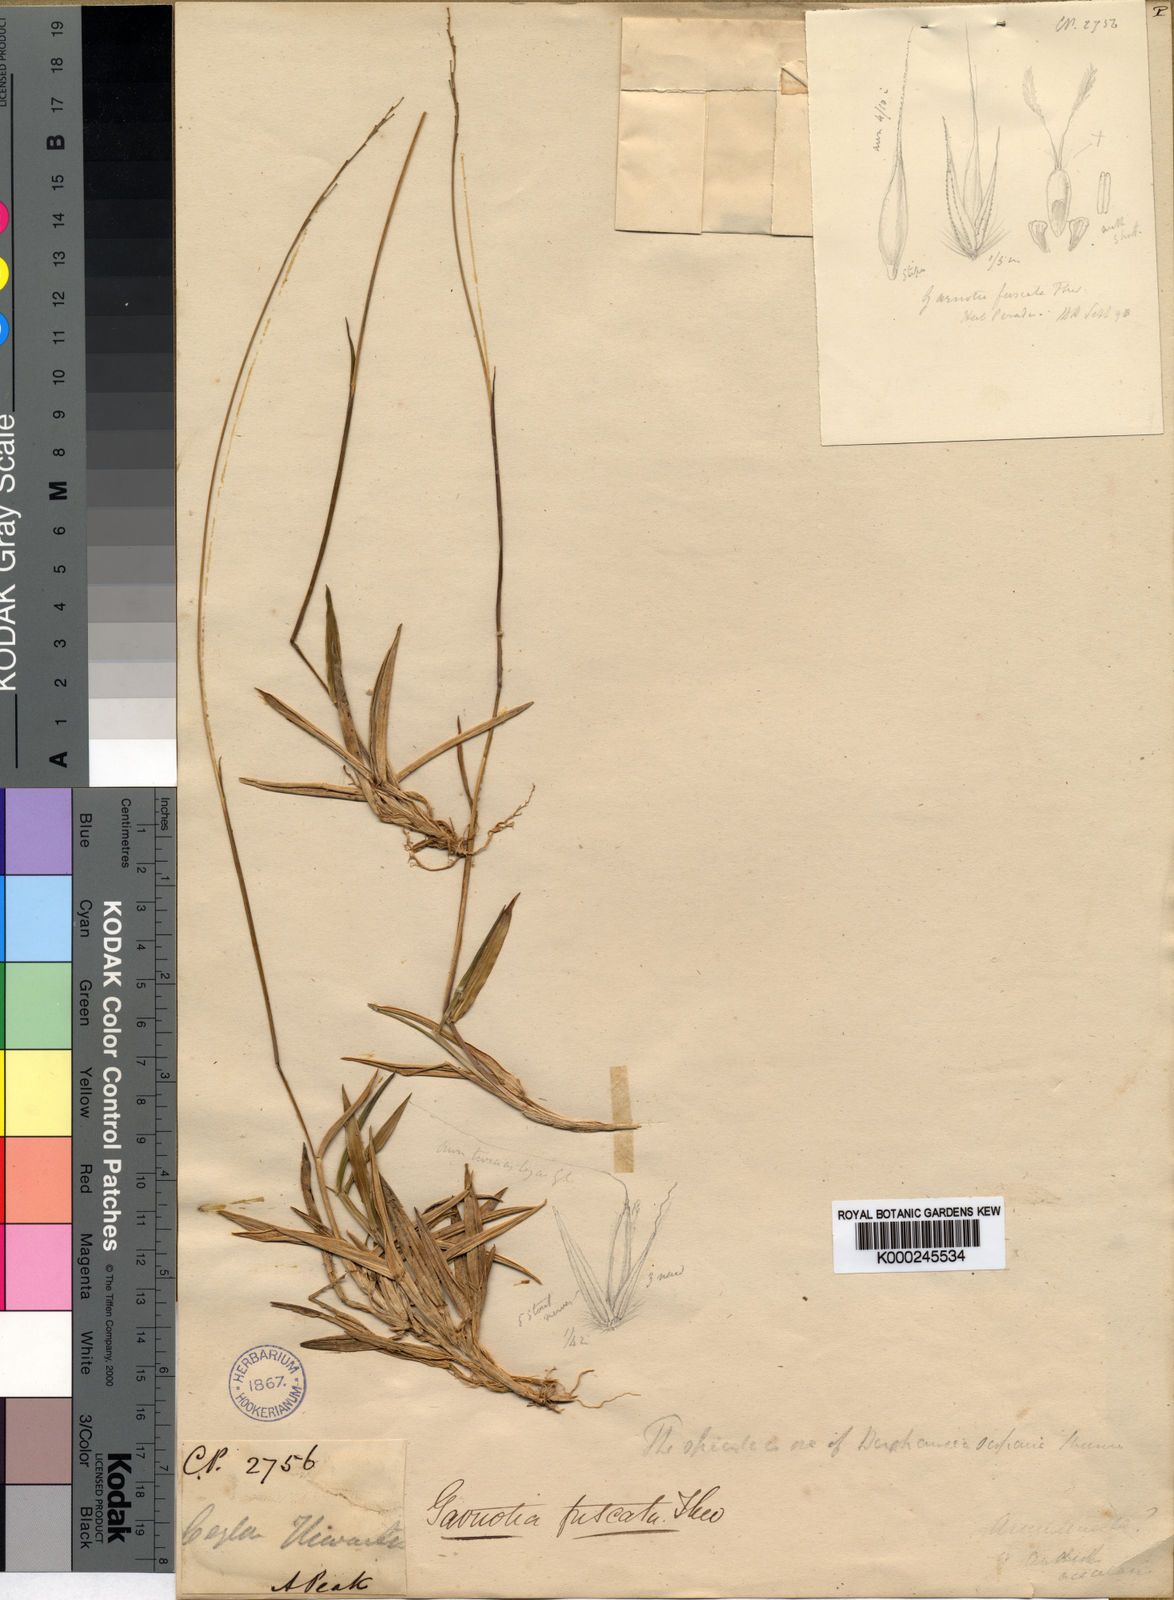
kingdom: Plantae
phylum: Tracheophyta
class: Liliopsida
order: Poales
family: Poaceae
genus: Garnotia
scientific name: Garnotia fuscata
